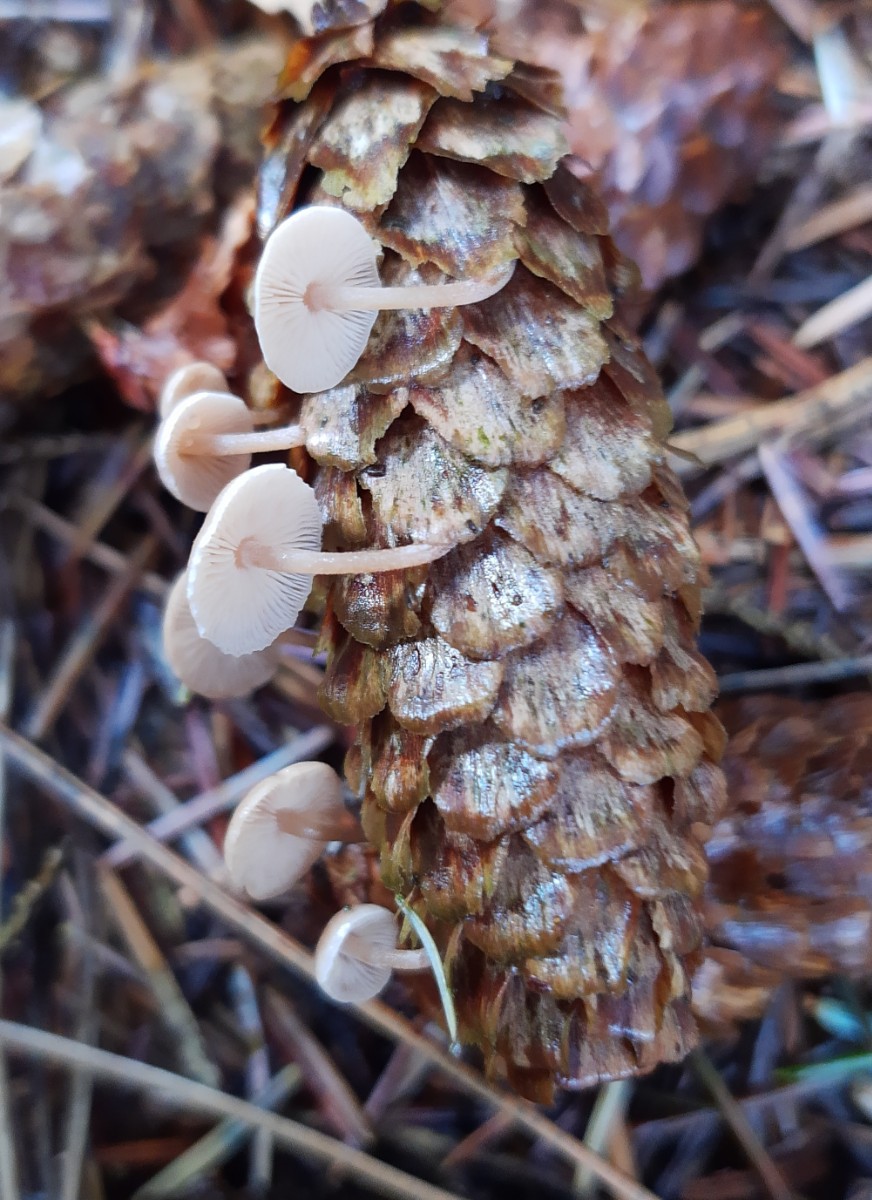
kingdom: Fungi
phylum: Basidiomycota
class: Agaricomycetes
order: Agaricales
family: Marasmiaceae
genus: Baeospora
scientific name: Baeospora myosura
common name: koglebruskhat
